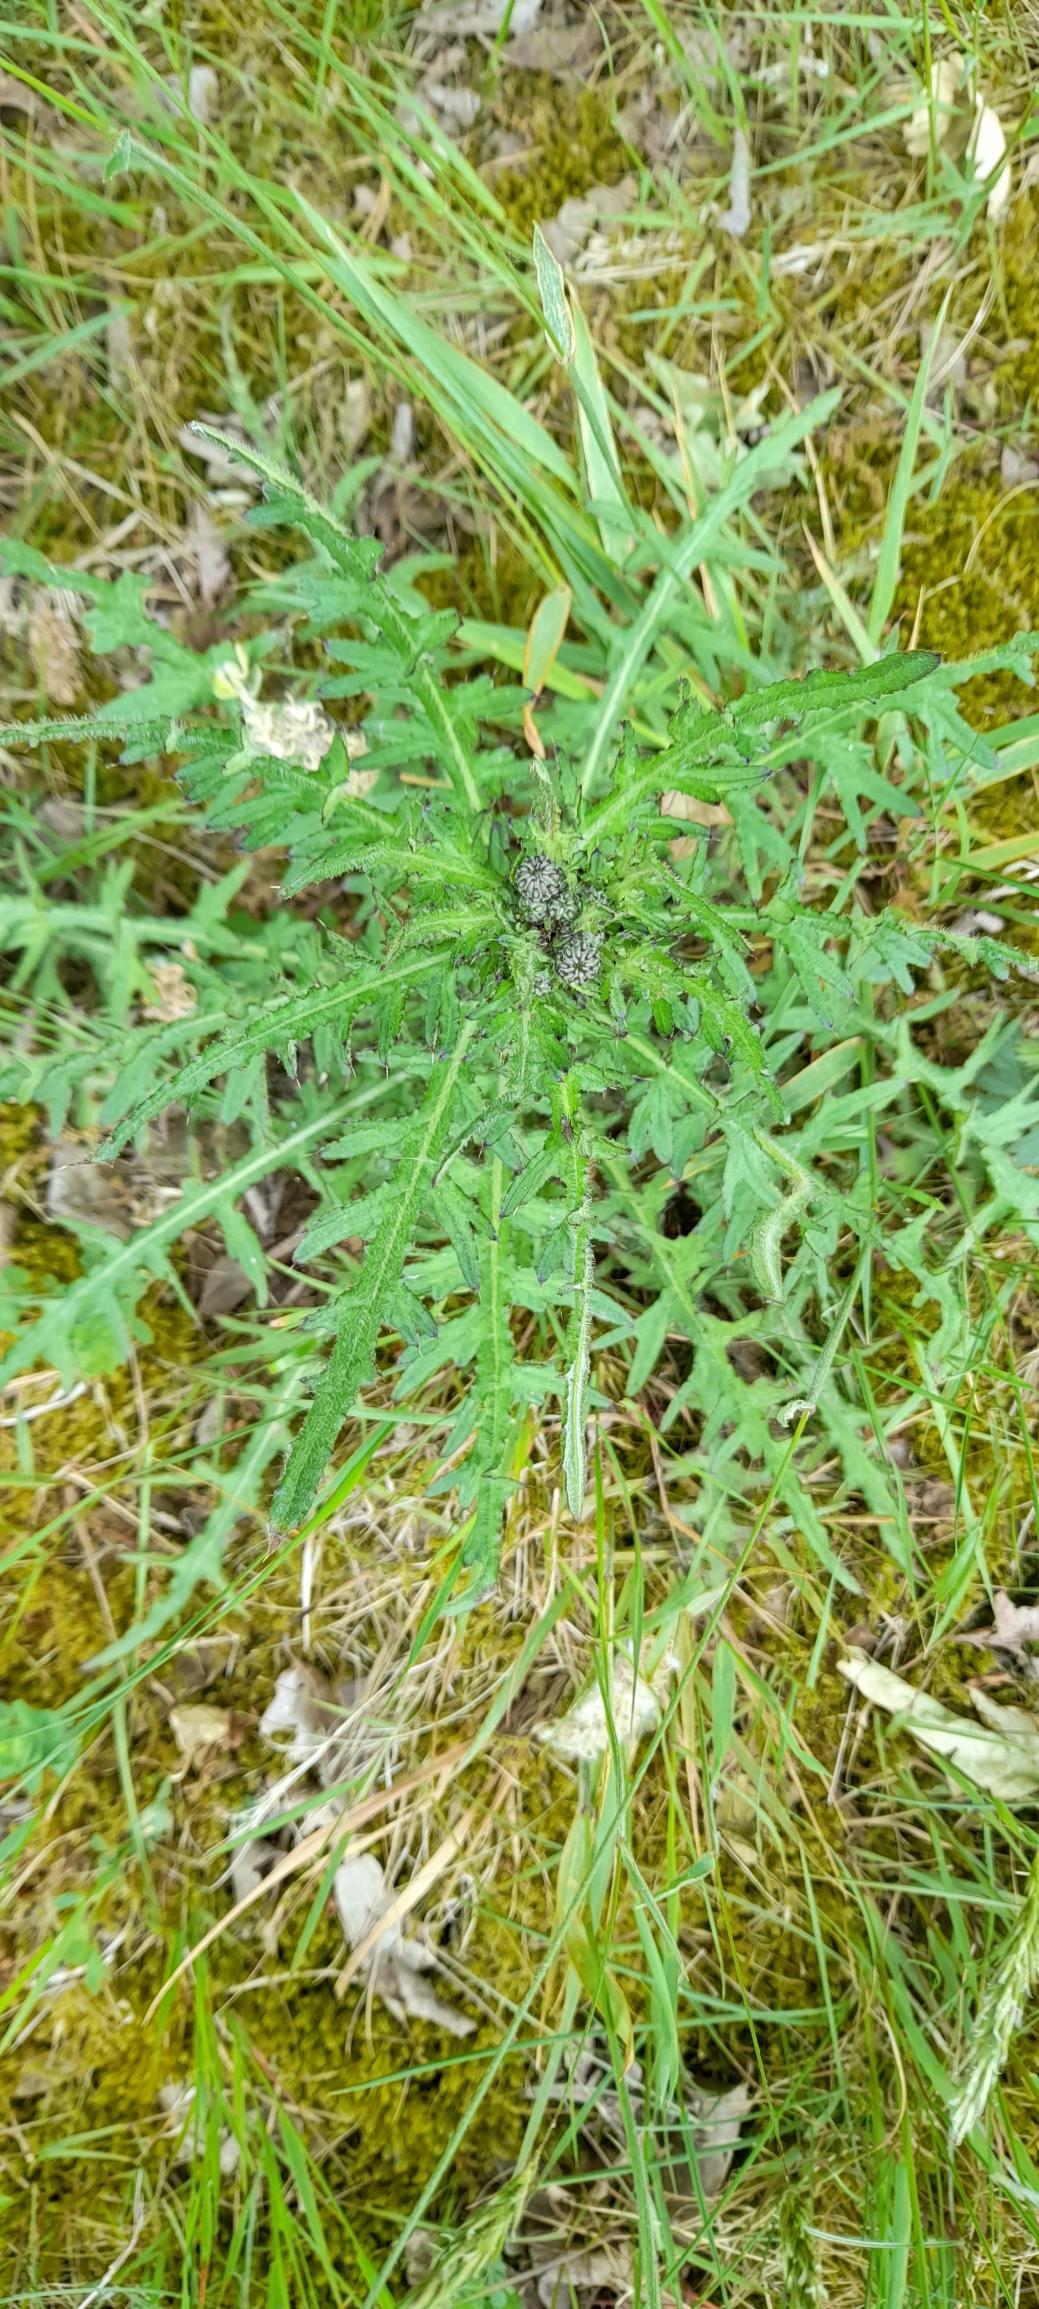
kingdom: Plantae
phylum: Tracheophyta
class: Magnoliopsida
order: Asterales
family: Asteraceae
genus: Cirsium
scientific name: Cirsium palustre
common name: Kær-tidsel
